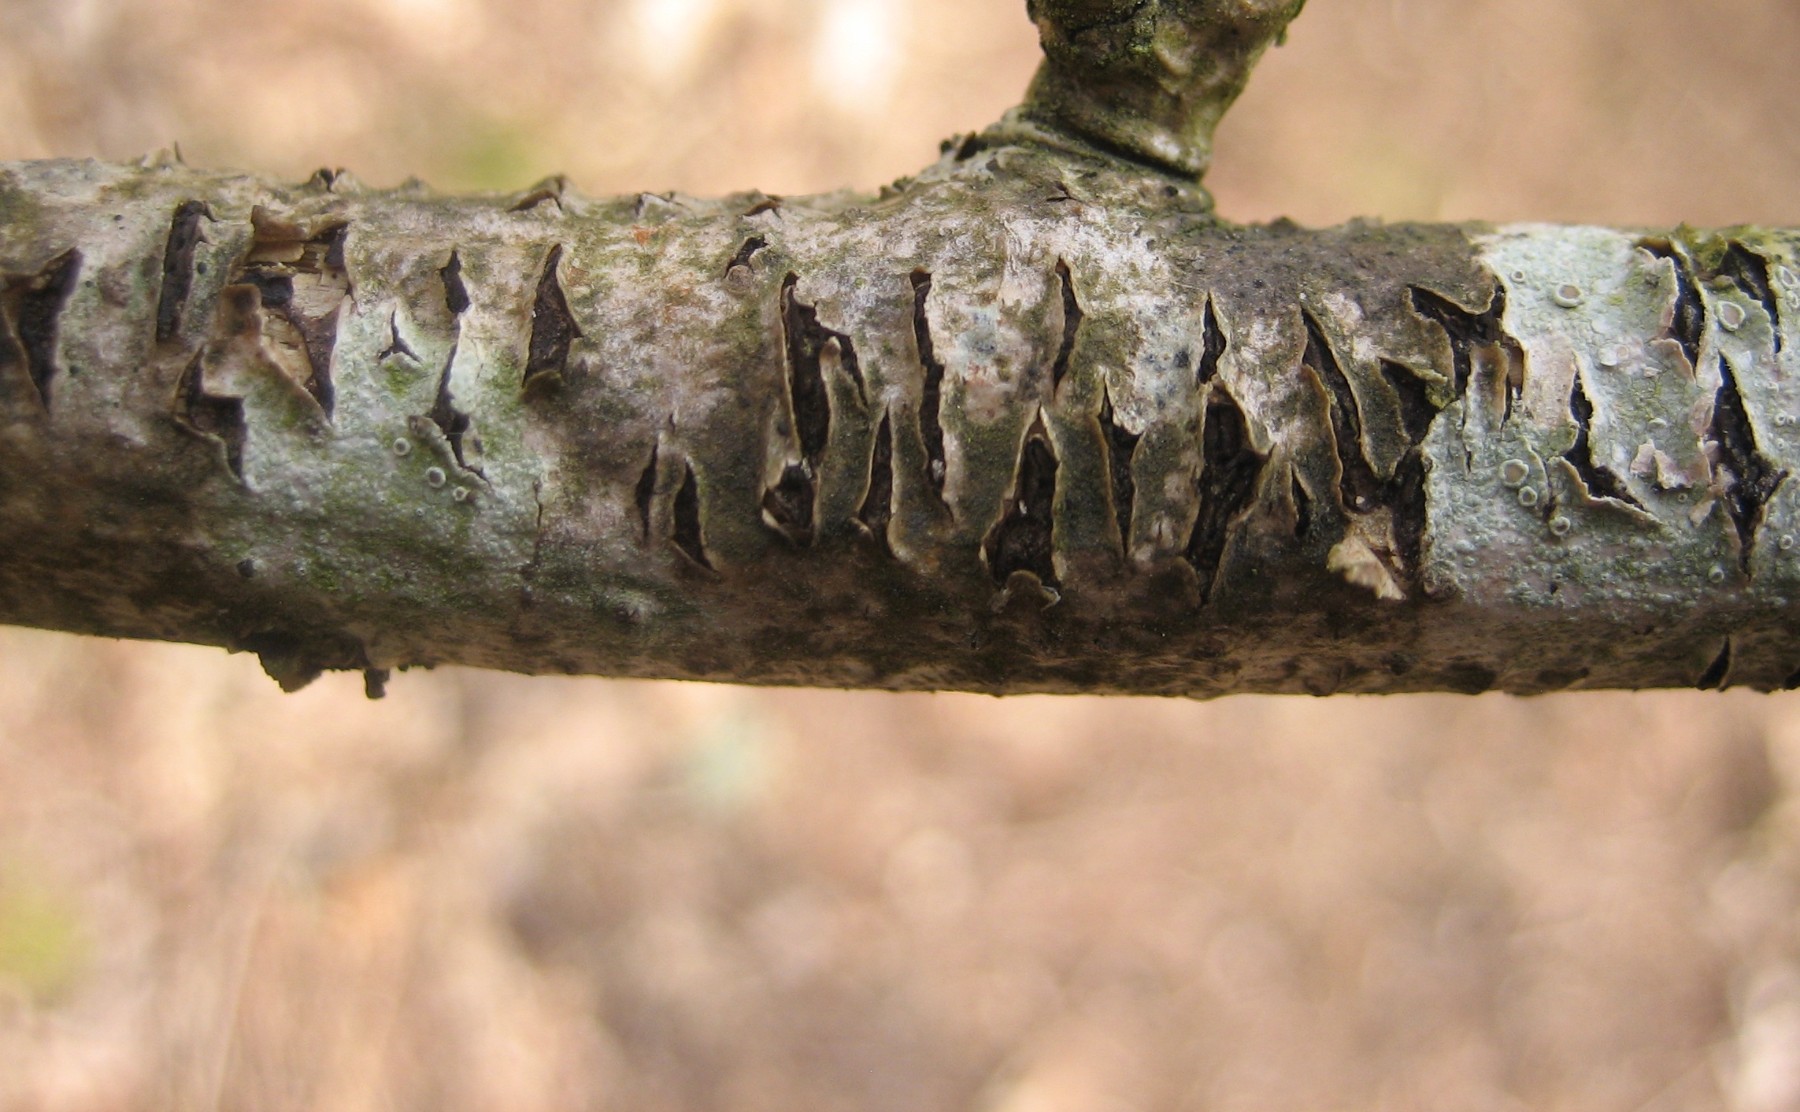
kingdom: Fungi
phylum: Ascomycota
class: Leotiomycetes
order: Rhytismatales
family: Rhytismataceae
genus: Colpoma
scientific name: Colpoma quercinum
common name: ege-sprækkeskive
